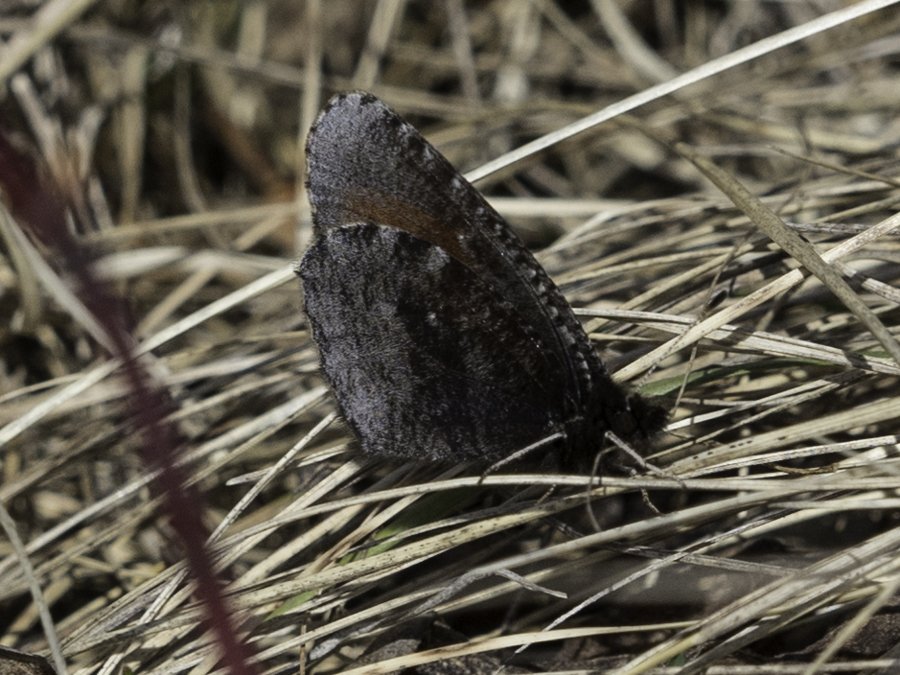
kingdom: Animalia
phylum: Arthropoda
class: Insecta
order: Lepidoptera
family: Nymphalidae
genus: Erebia
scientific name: Erebia discoidalis
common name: Red-disked Alpine
